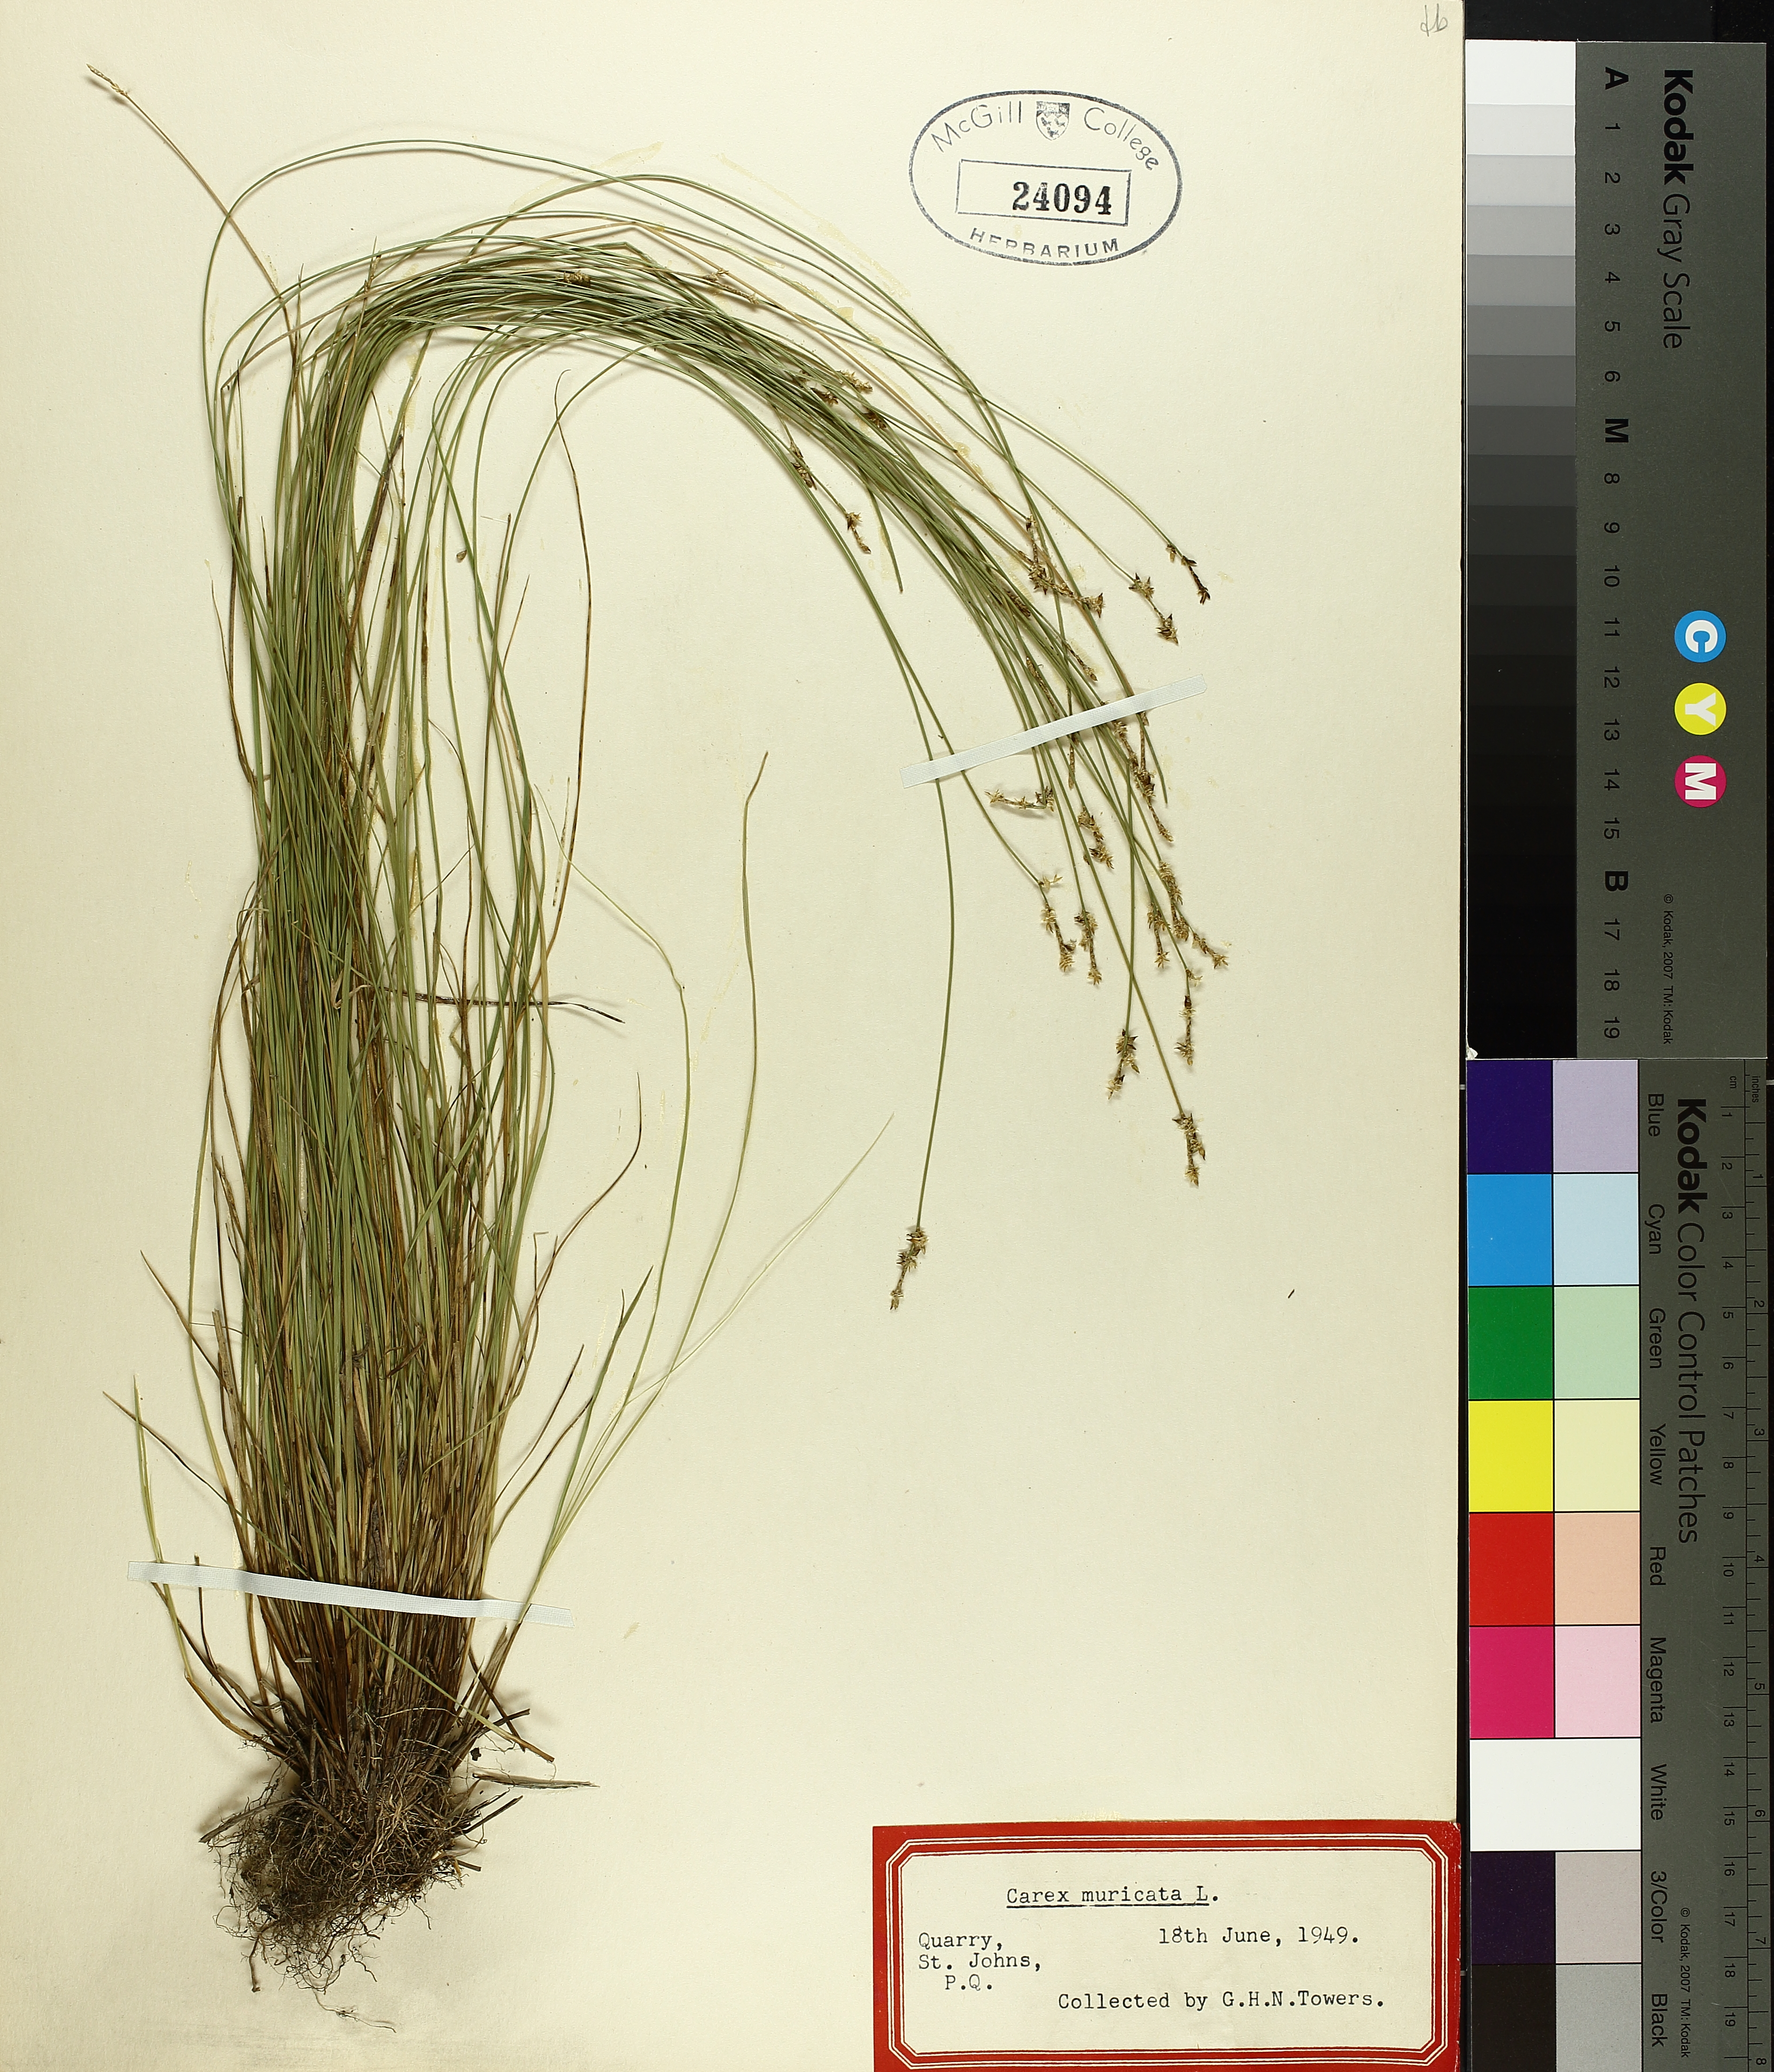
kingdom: Plantae
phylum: Tracheophyta
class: Liliopsida
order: Poales
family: Cyperaceae
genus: Carex
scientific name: Carex muricata
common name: Rough sedge
